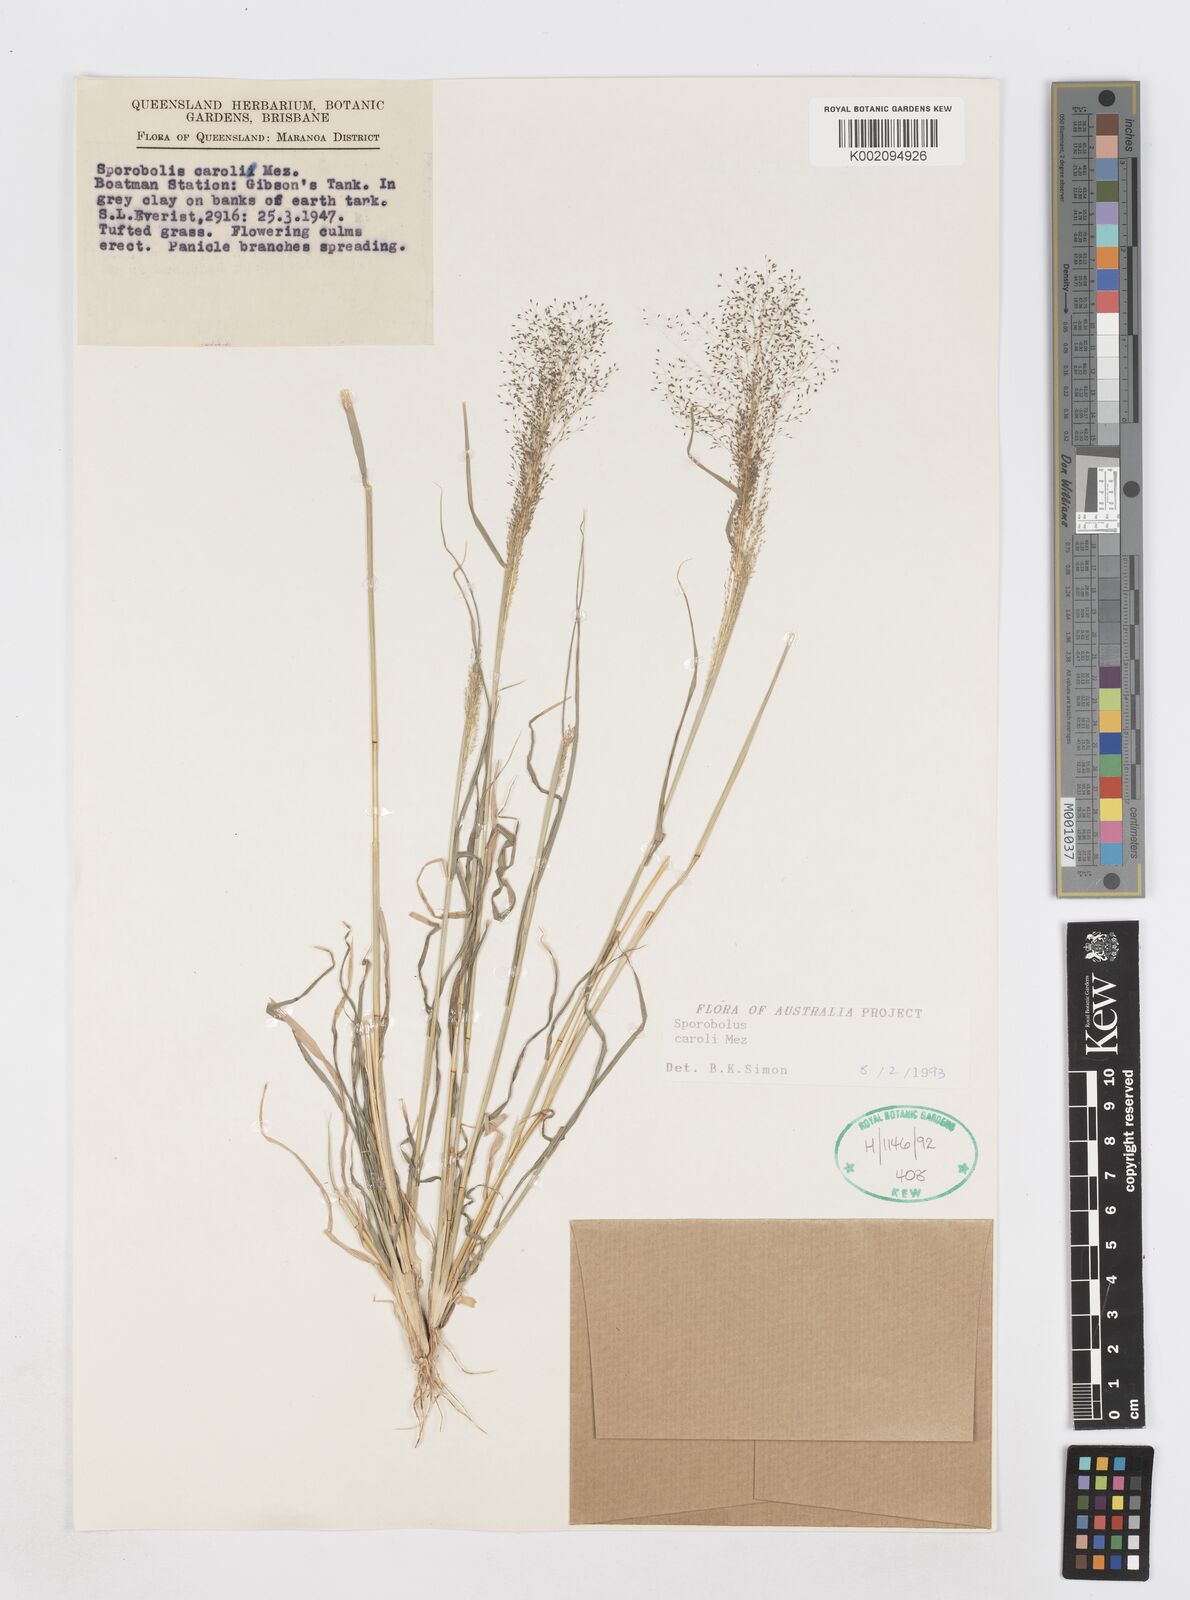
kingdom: Plantae
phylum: Tracheophyta
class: Liliopsida
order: Poales
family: Poaceae
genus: Sporobolus
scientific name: Sporobolus caroli
